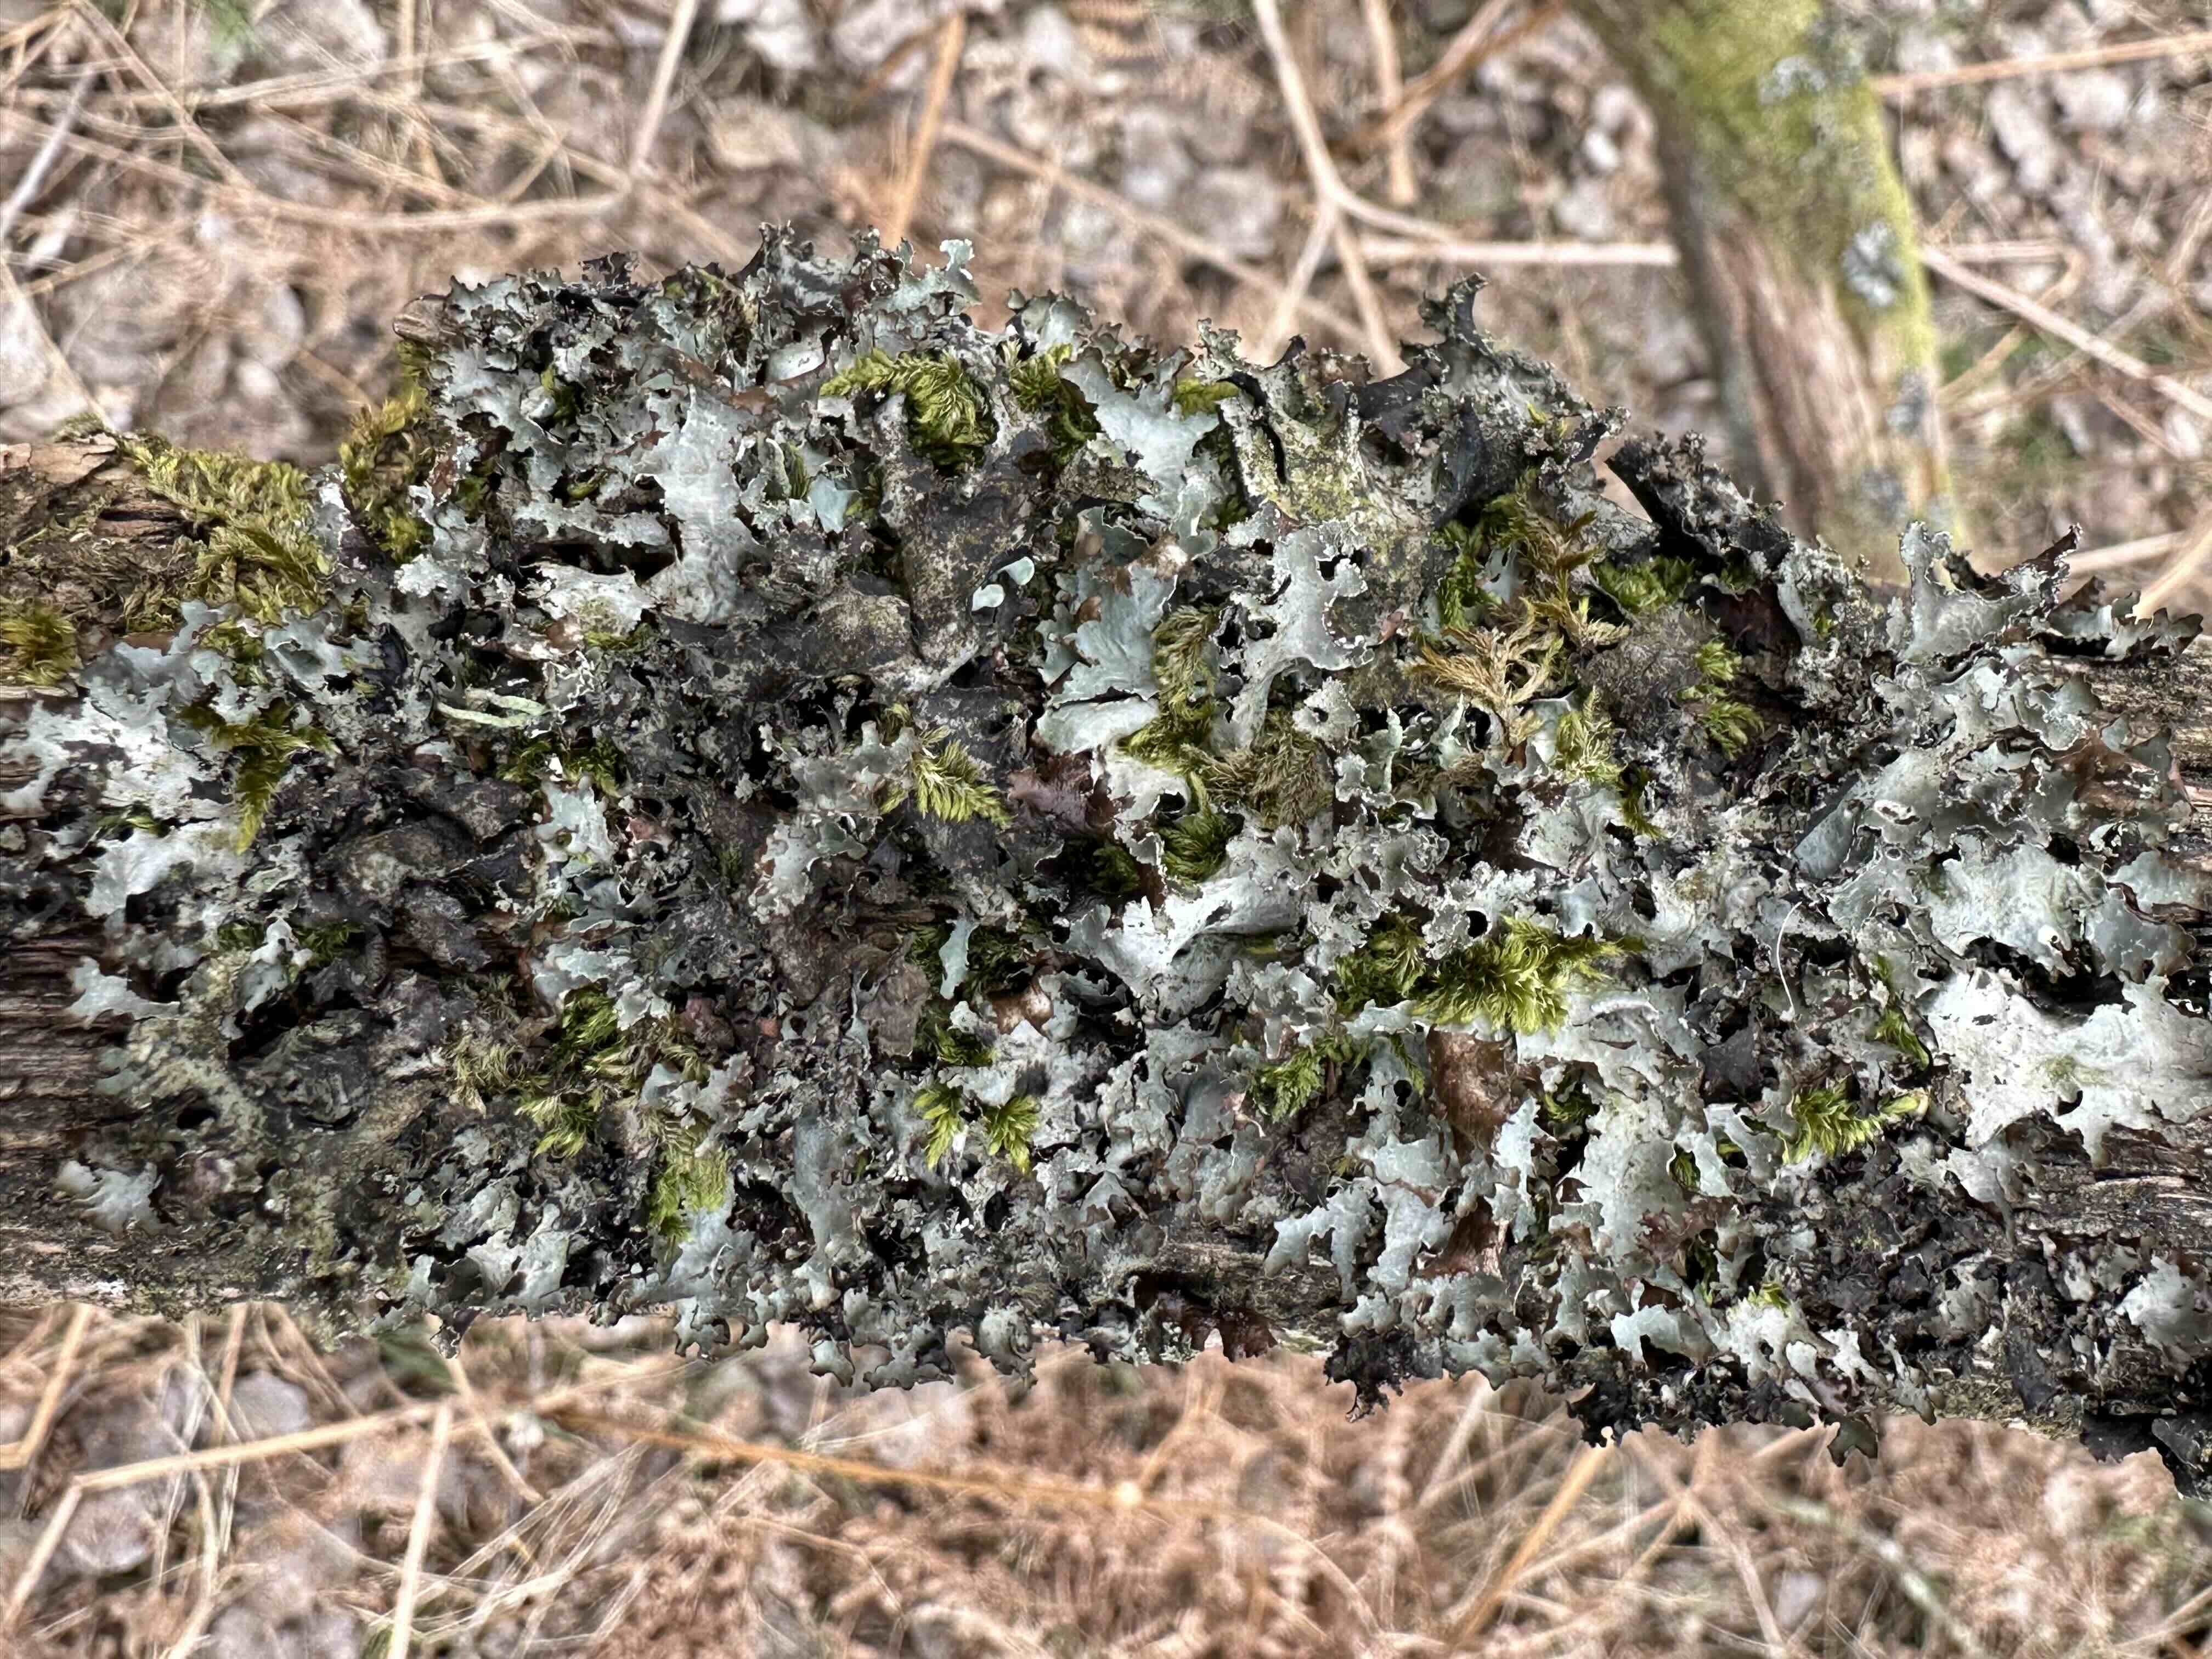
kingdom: Fungi
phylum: Ascomycota
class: Lecanoromycetes
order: Lecanorales
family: Parmeliaceae
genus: Platismatia
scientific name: Platismatia glauca
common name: blågrå papirlav
